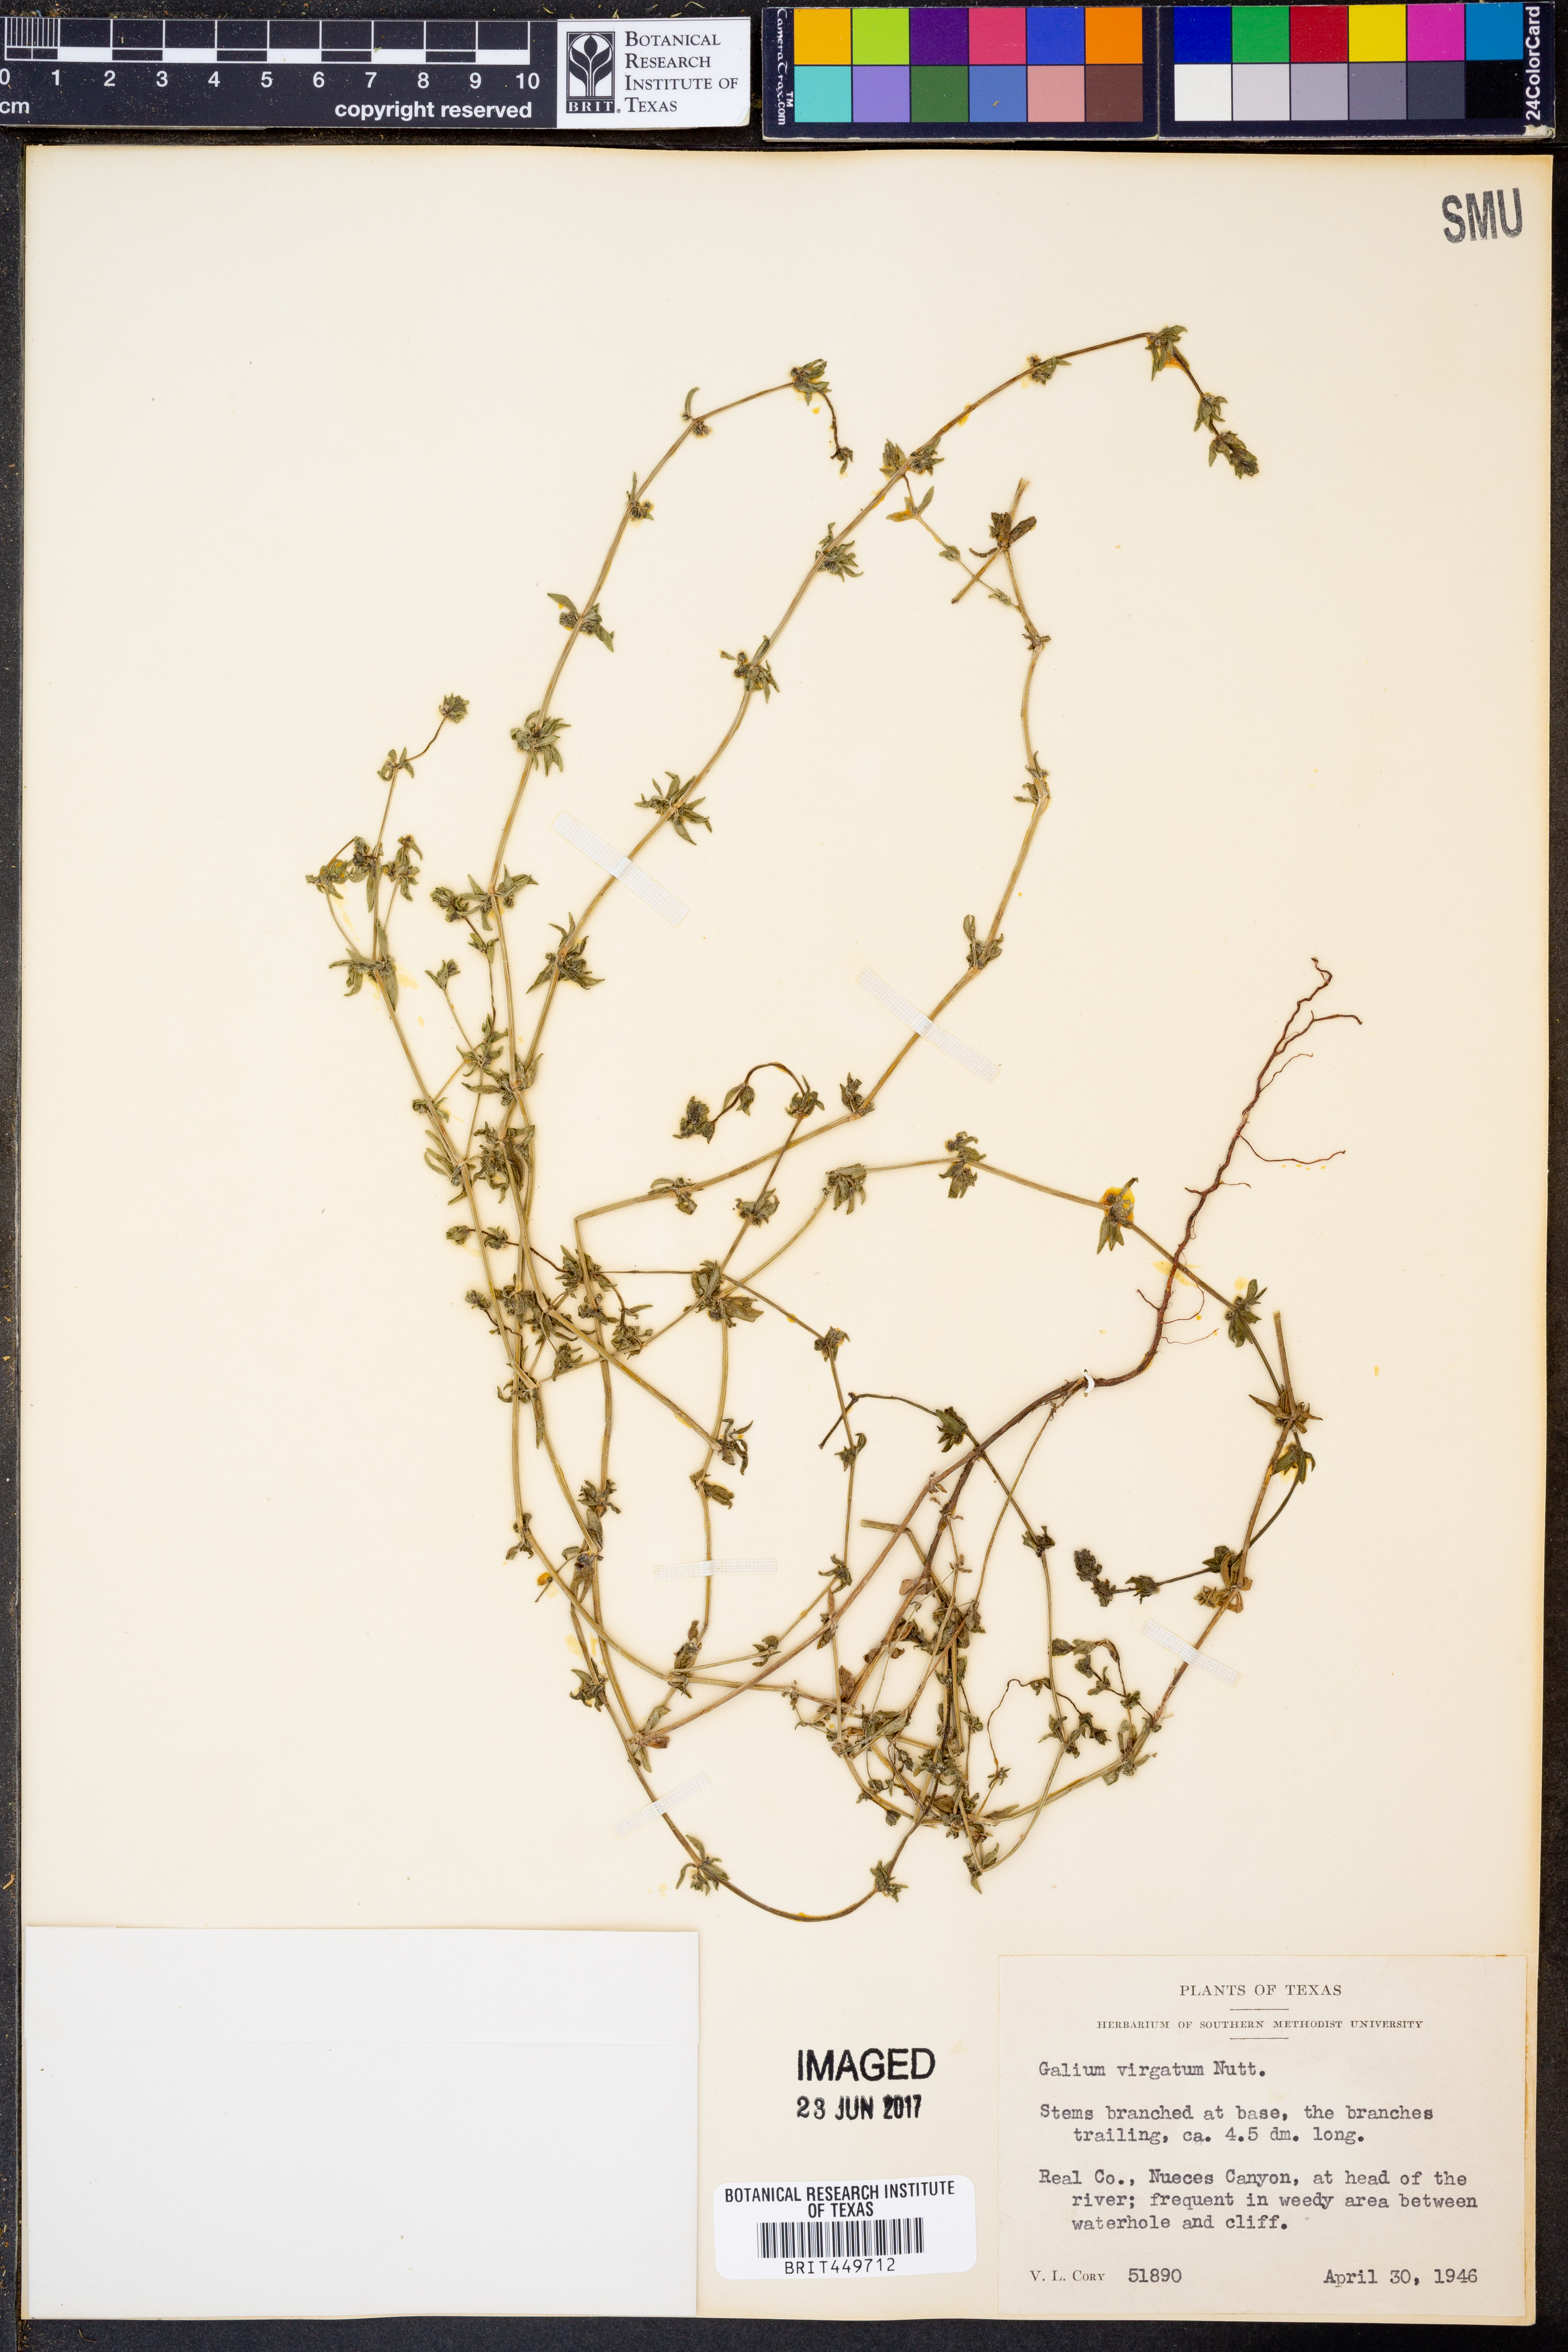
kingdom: Plantae
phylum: Tracheophyta
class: Magnoliopsida
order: Gentianales
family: Rubiaceae
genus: Galium
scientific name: Galium virgatum
